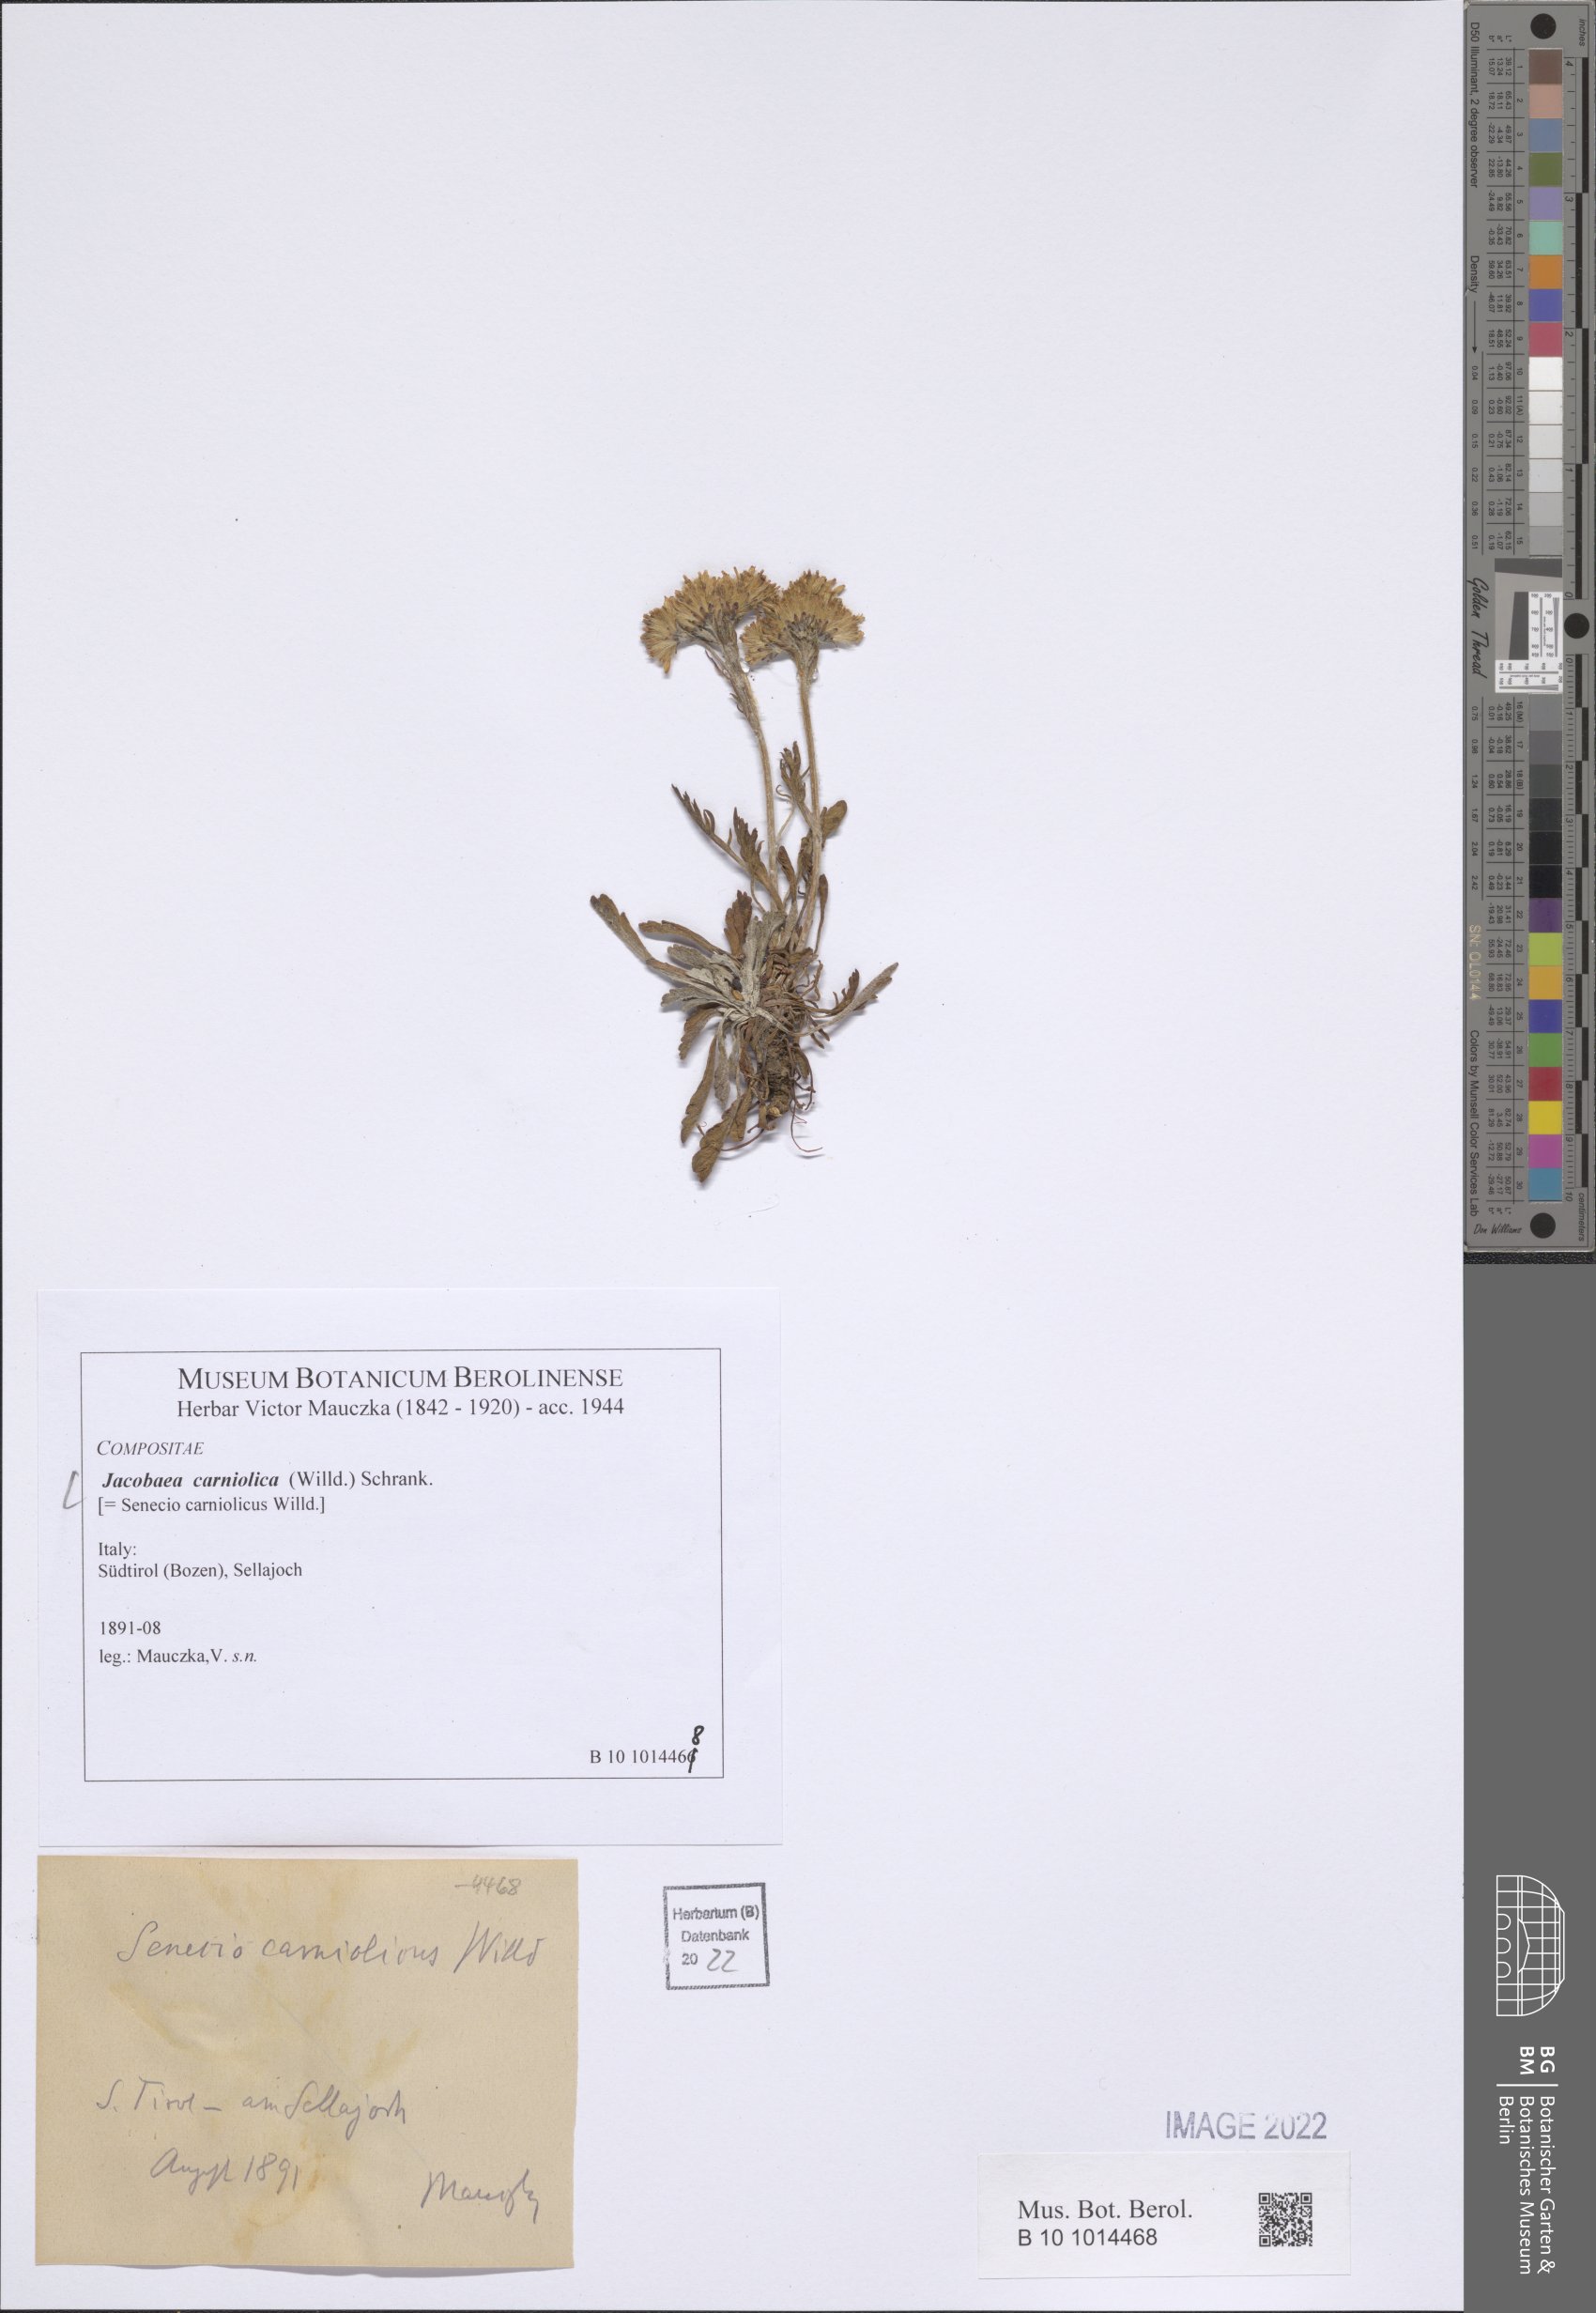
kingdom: Plantae
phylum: Tracheophyta
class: Magnoliopsida
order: Asterales
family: Asteraceae
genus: Jacobaea
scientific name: Jacobaea carniolica
